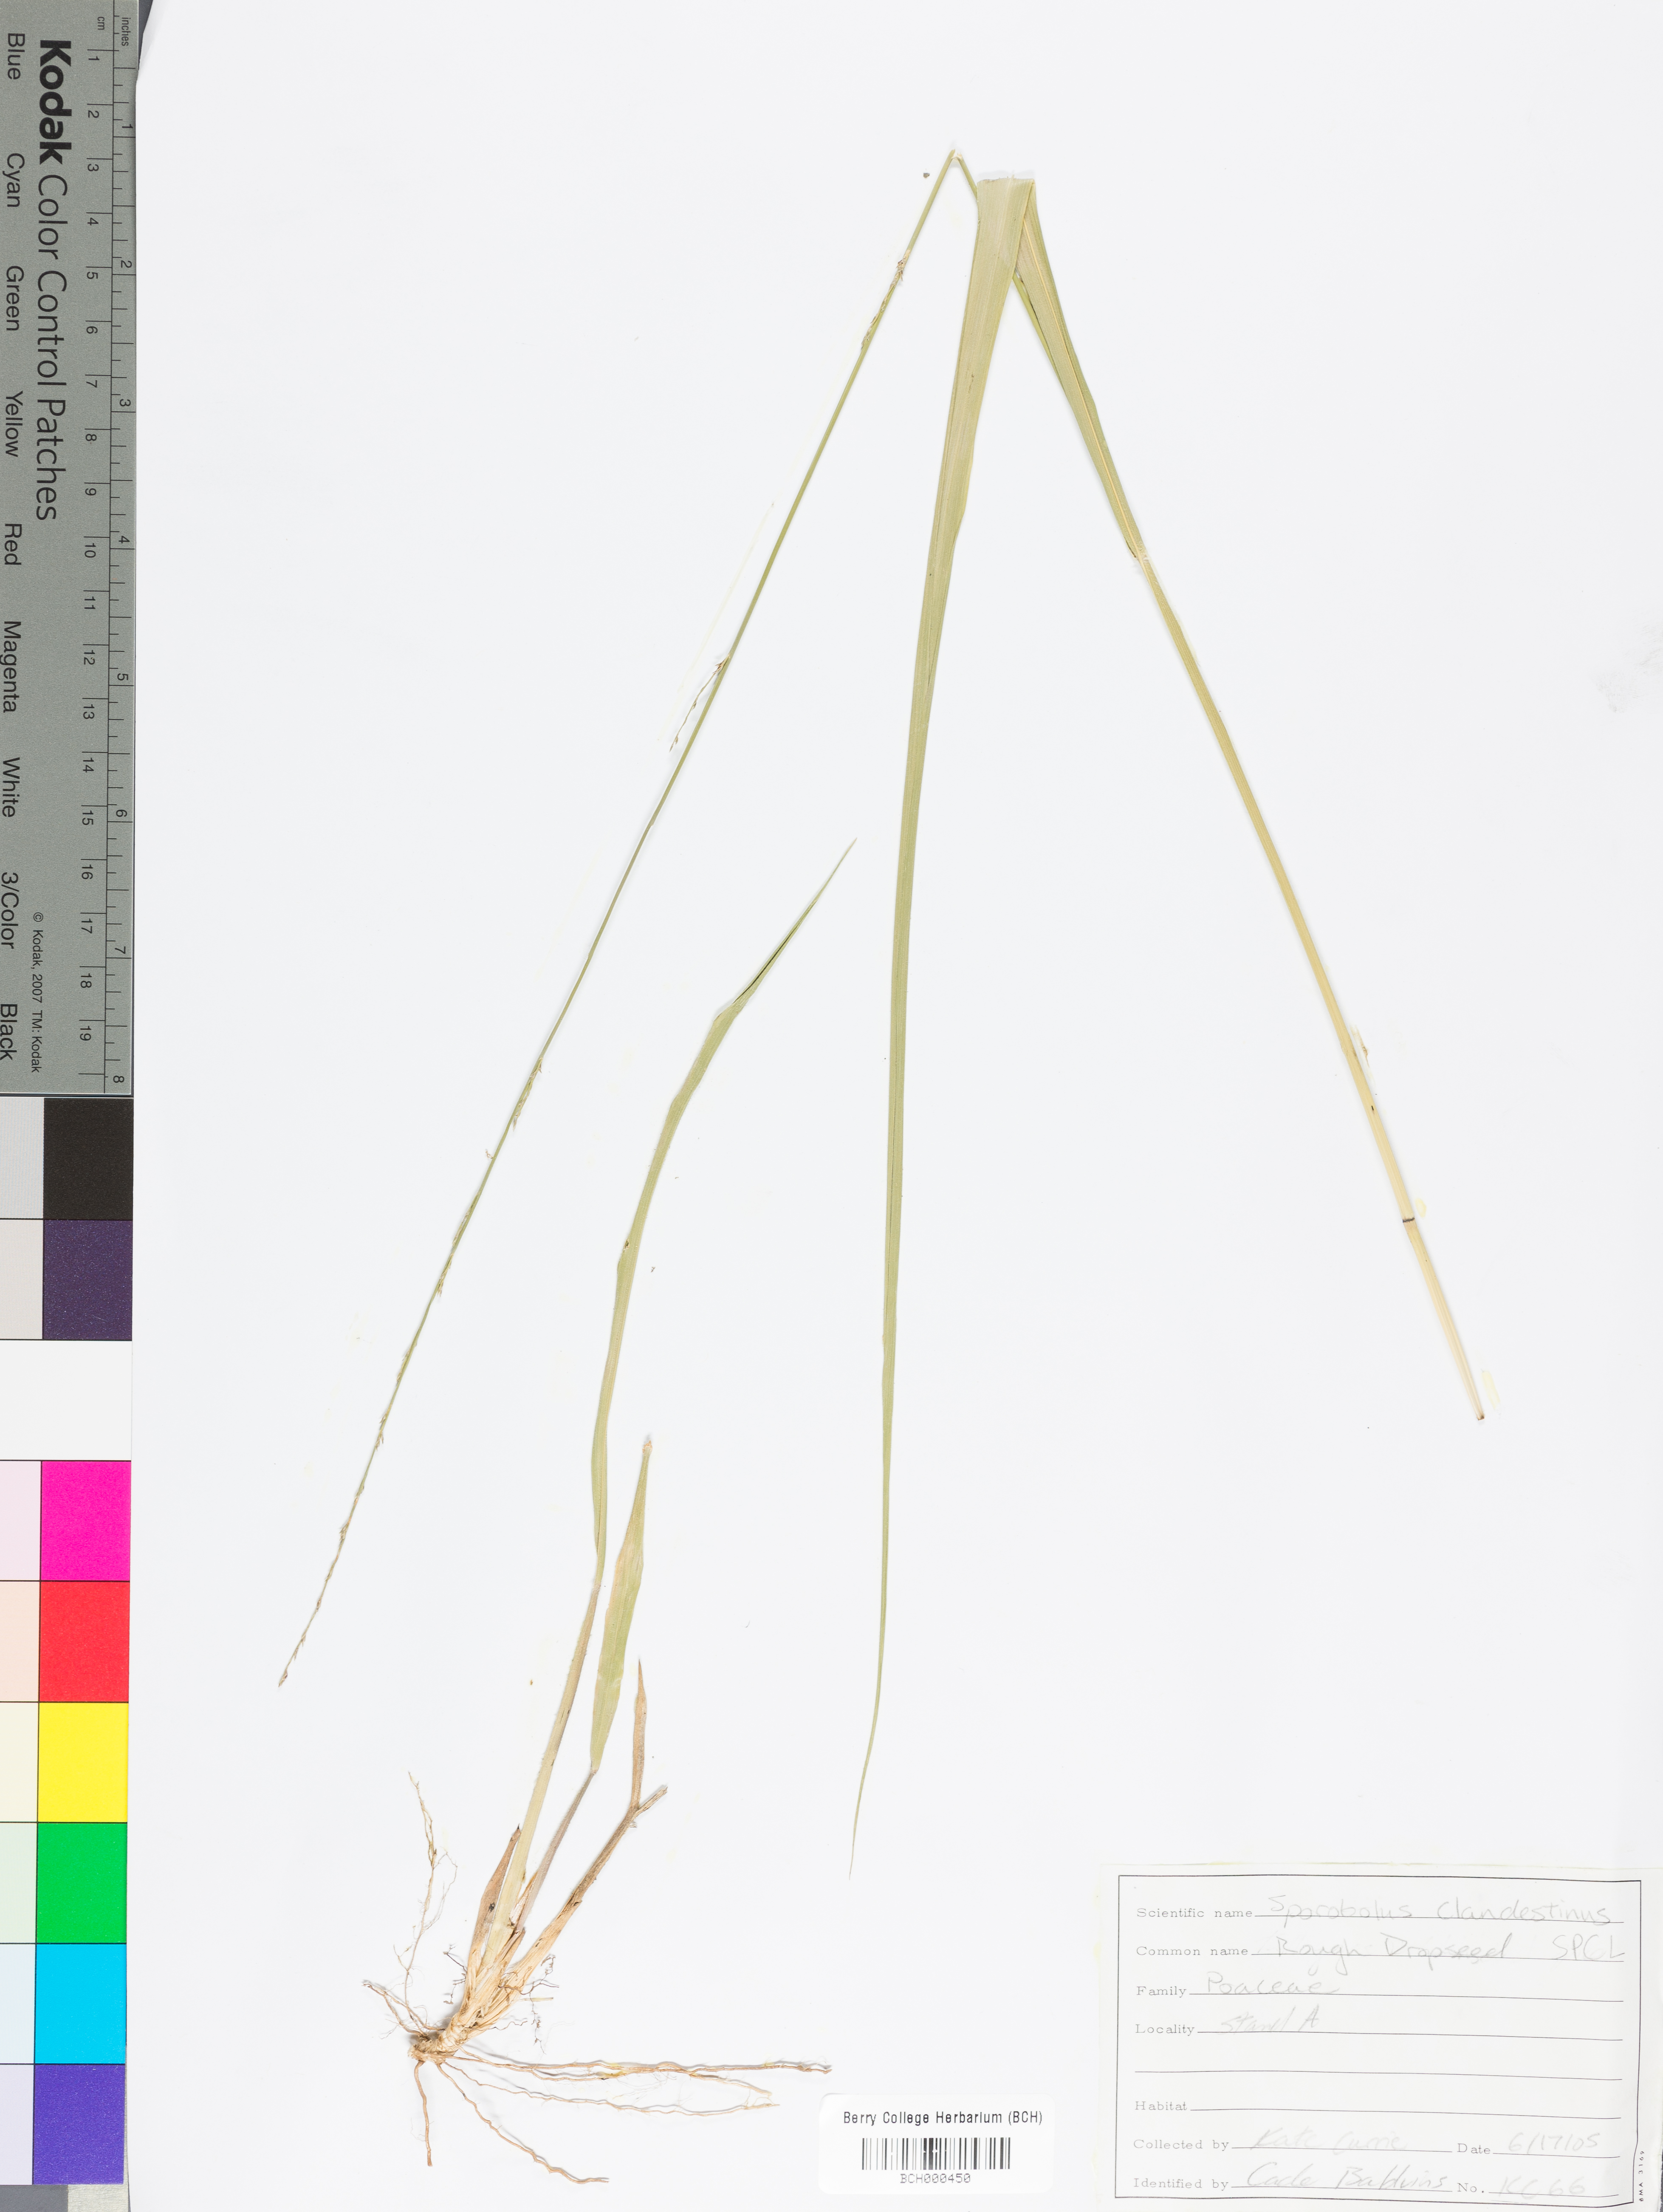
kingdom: Plantae
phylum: Tracheophyta
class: Liliopsida
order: Poales
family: Poaceae
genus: Sporobolus
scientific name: Sporobolus clandestinus
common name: Hidden dropseed
